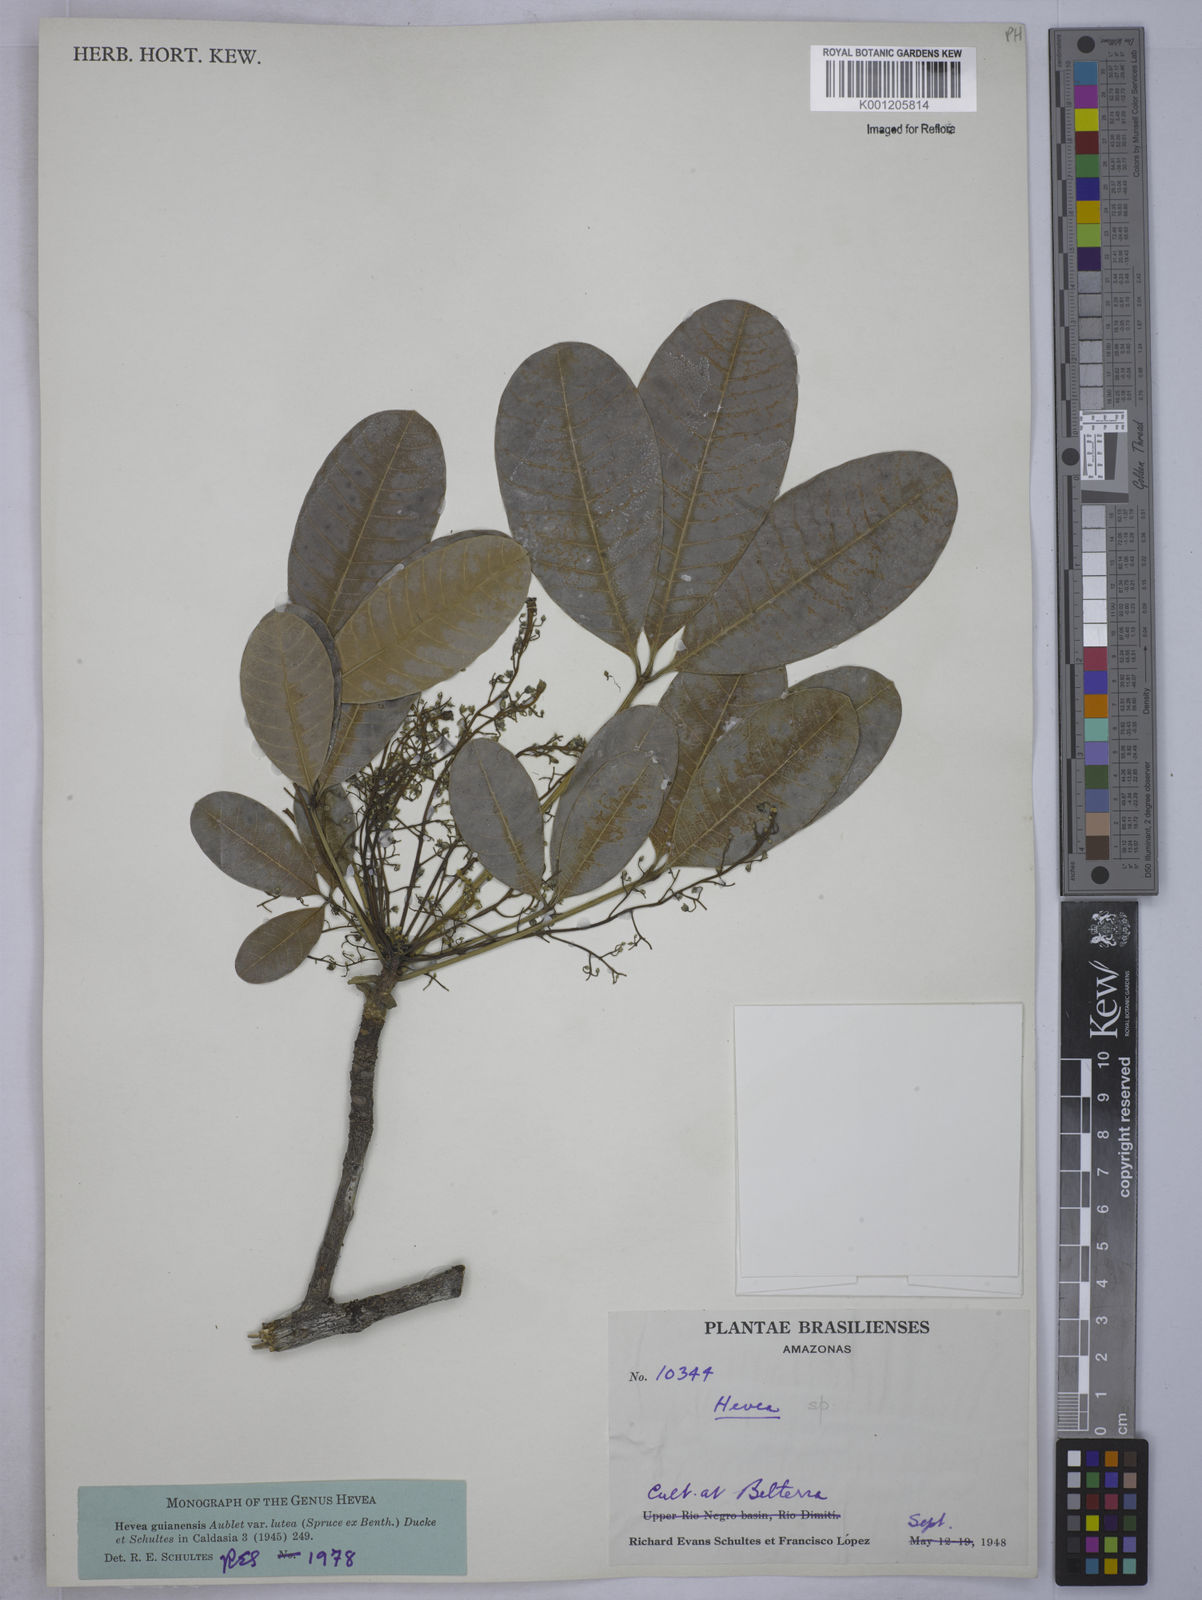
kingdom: Plantae
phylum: Tracheophyta
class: Magnoliopsida
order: Malpighiales
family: Euphorbiaceae
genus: Hevea
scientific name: Hevea guianensis
